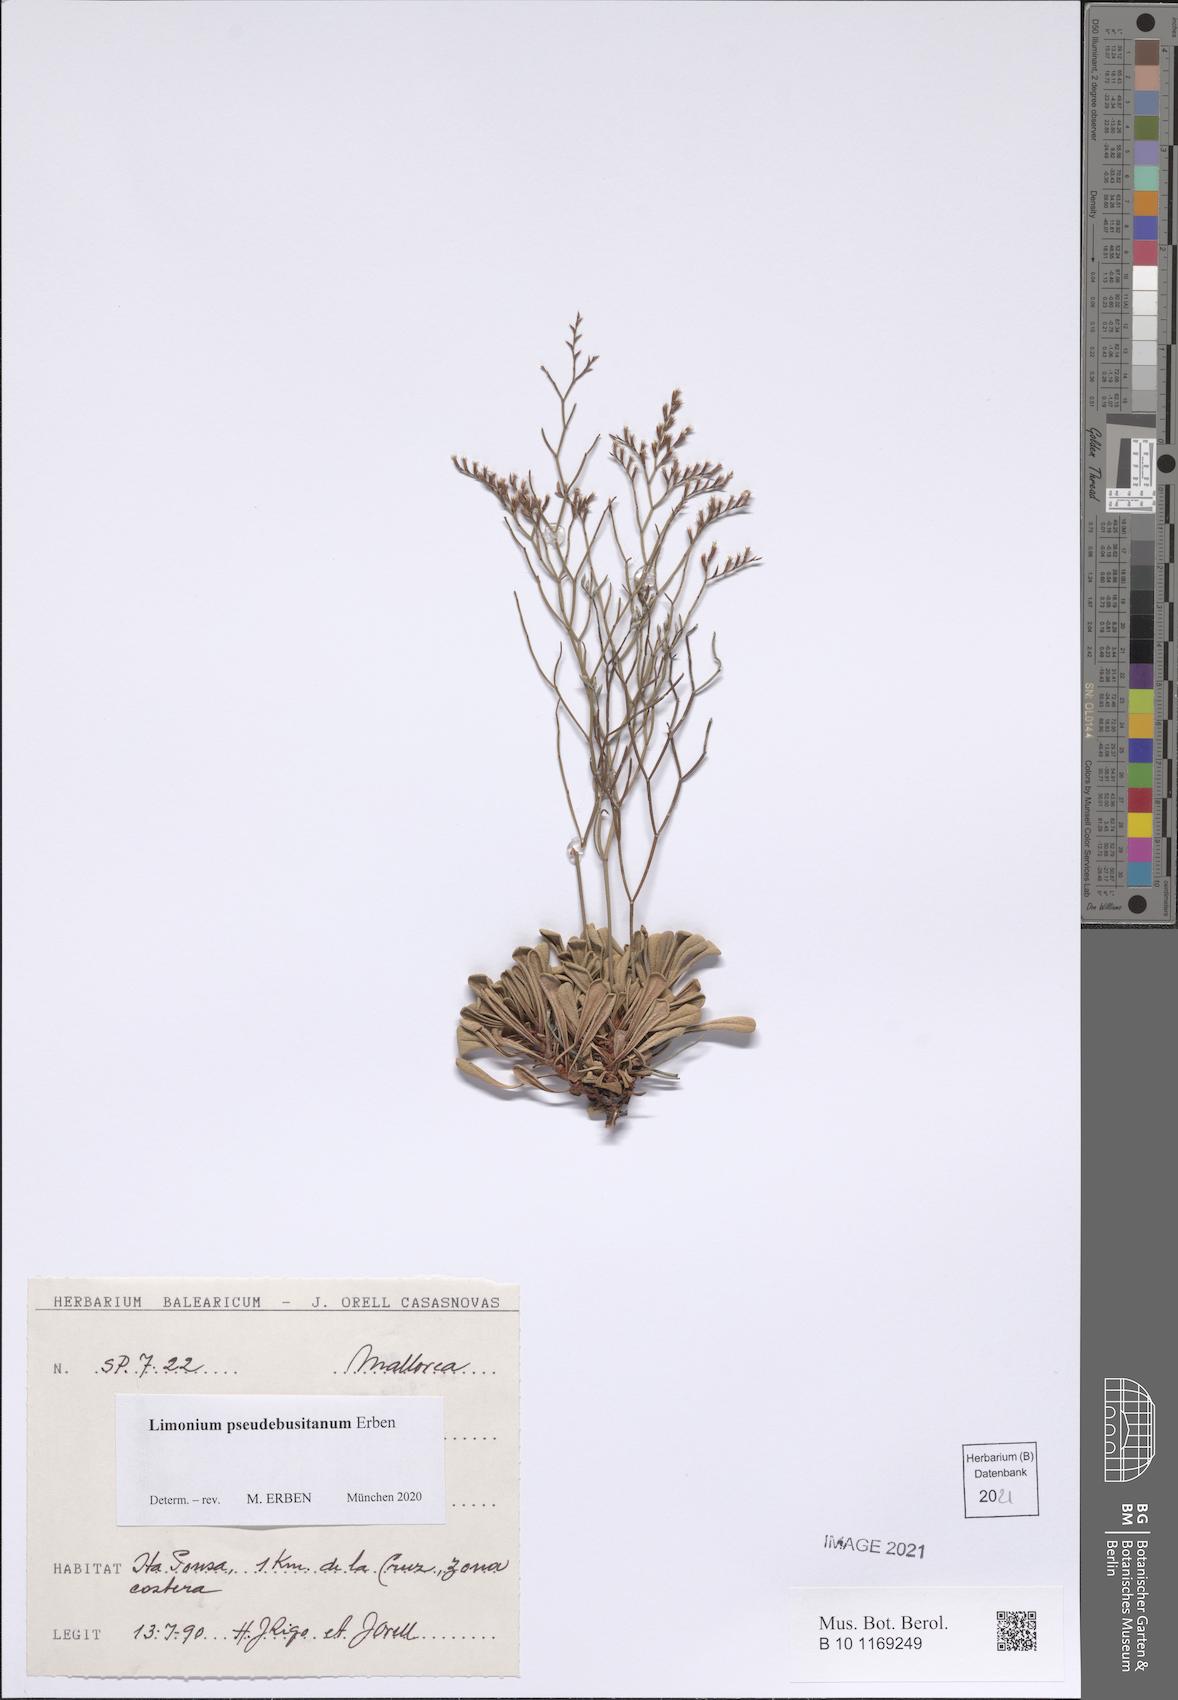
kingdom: Plantae
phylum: Tracheophyta
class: Magnoliopsida
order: Caryophyllales
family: Plumbaginaceae
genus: Limonium
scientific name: Limonium pseudebusitanum
